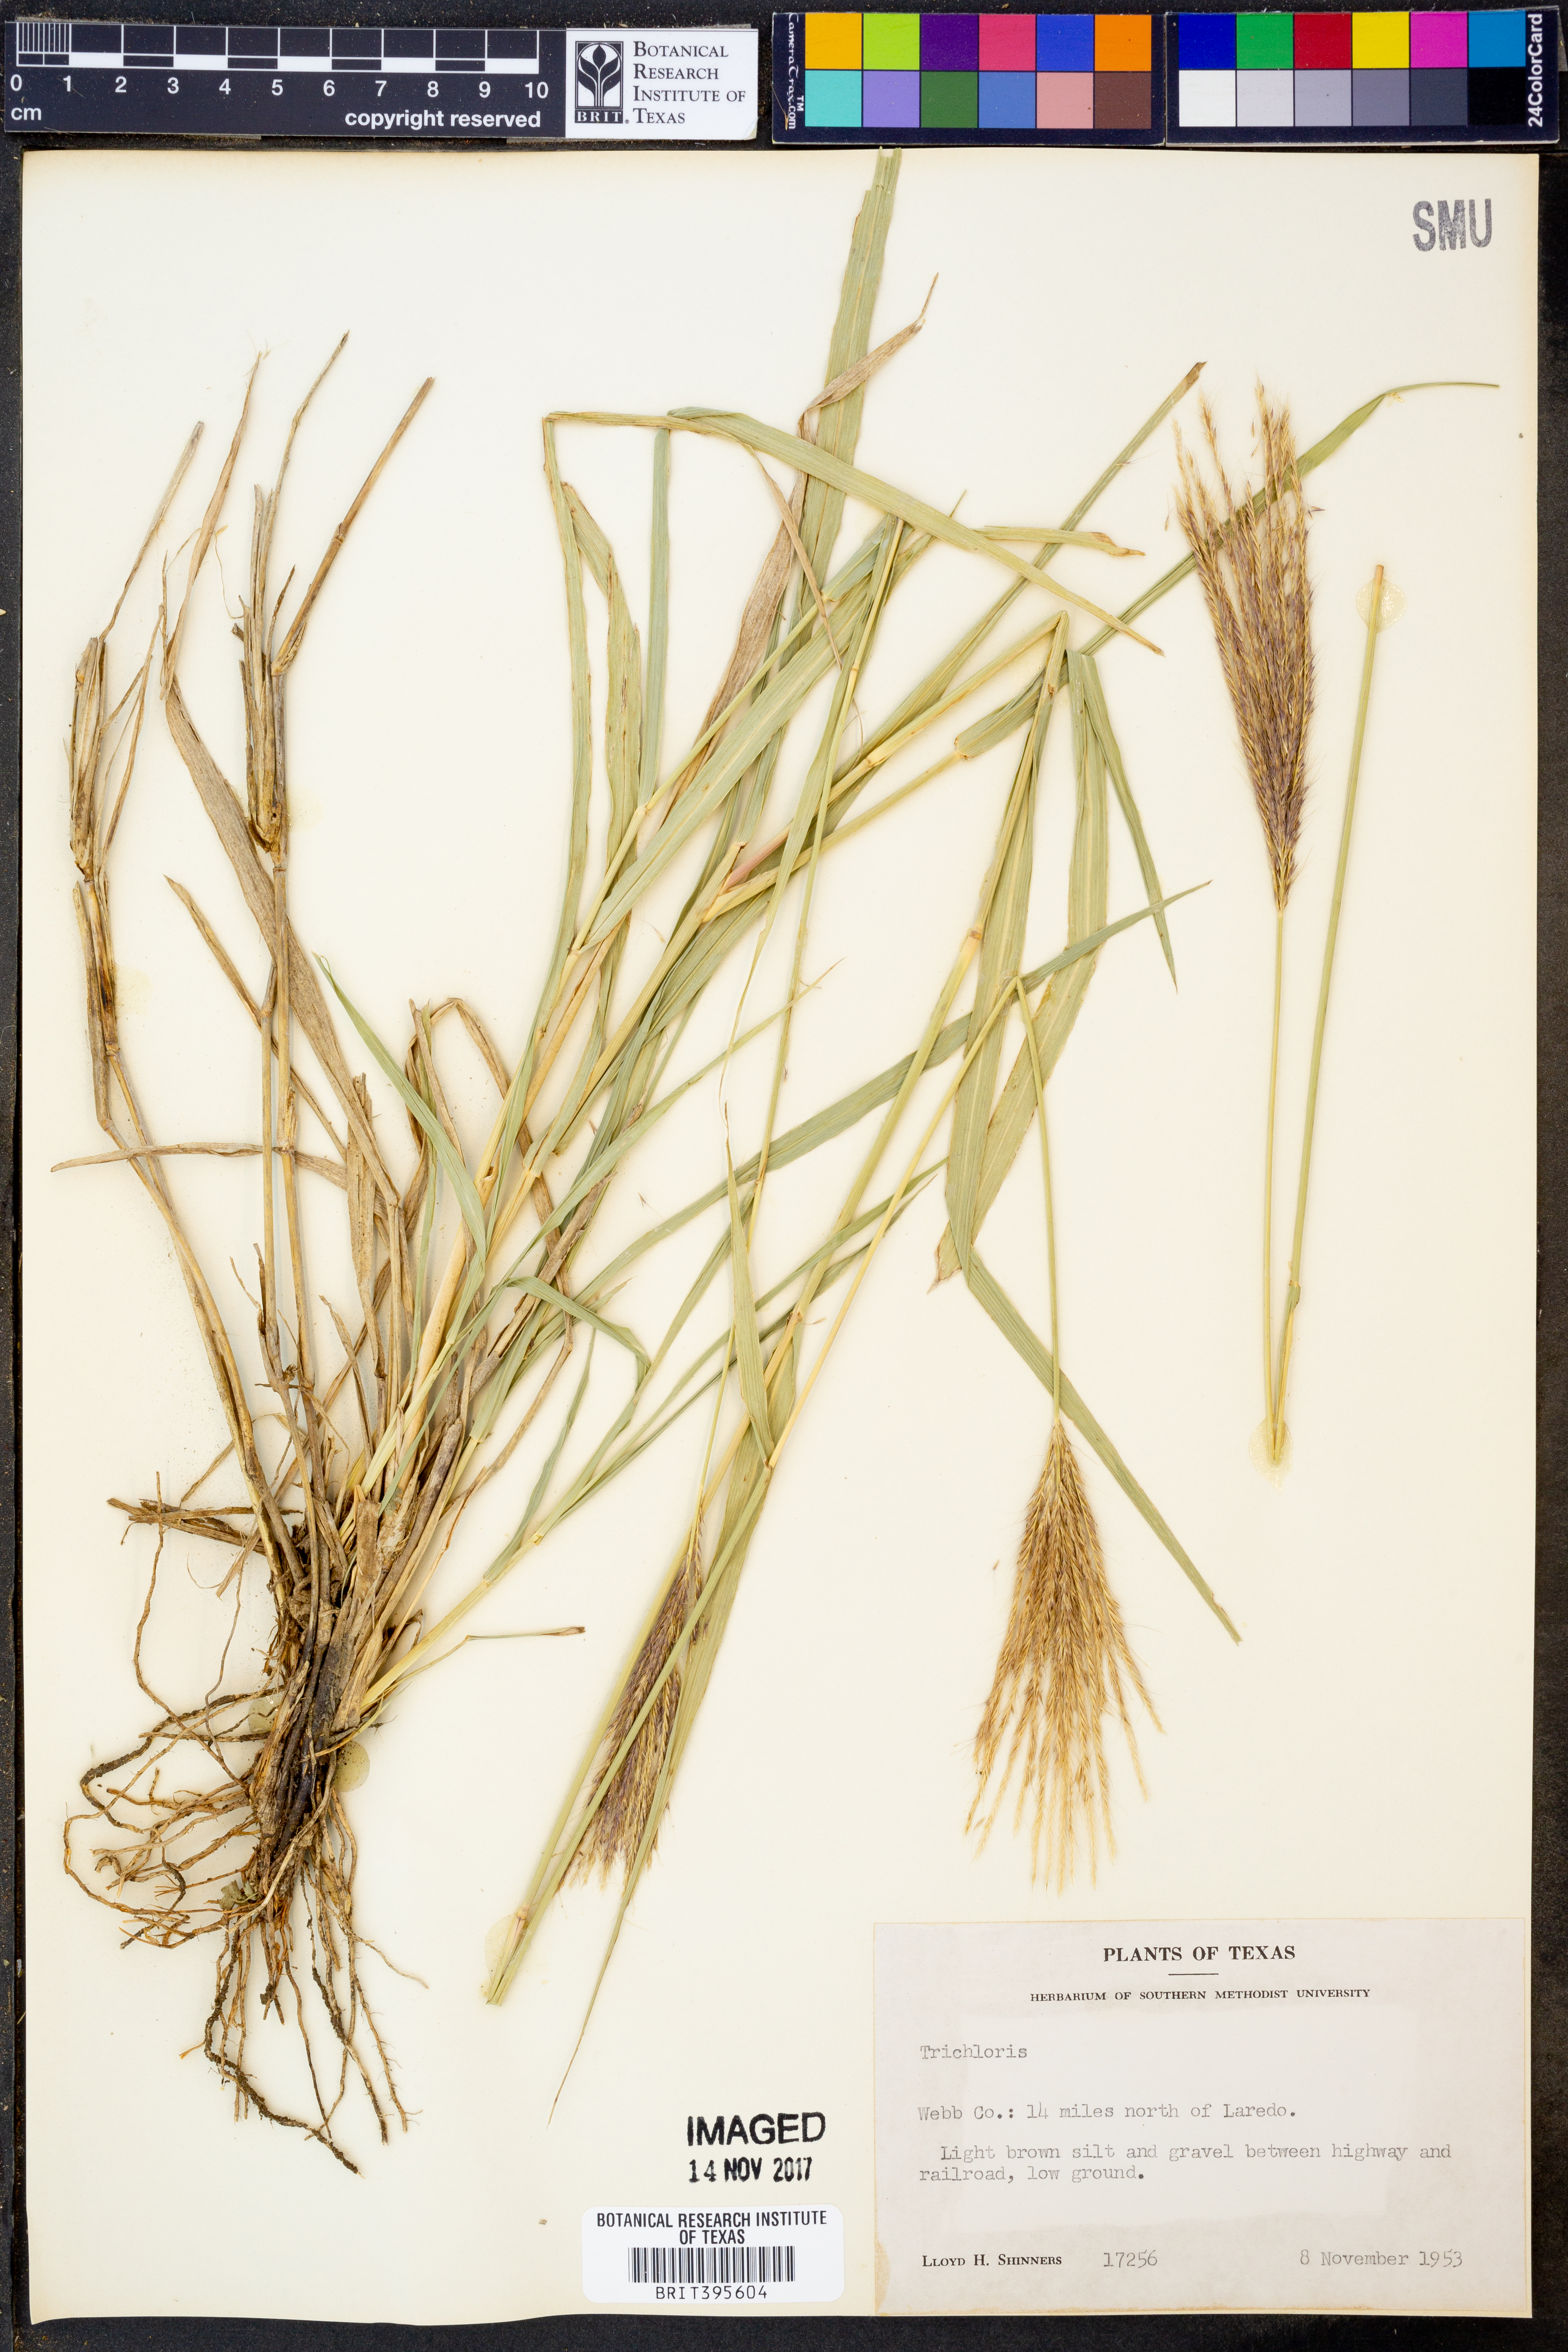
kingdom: Plantae
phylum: Tracheophyta
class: Liliopsida
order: Poales
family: Poaceae
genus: Trichloris
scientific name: Trichloris
